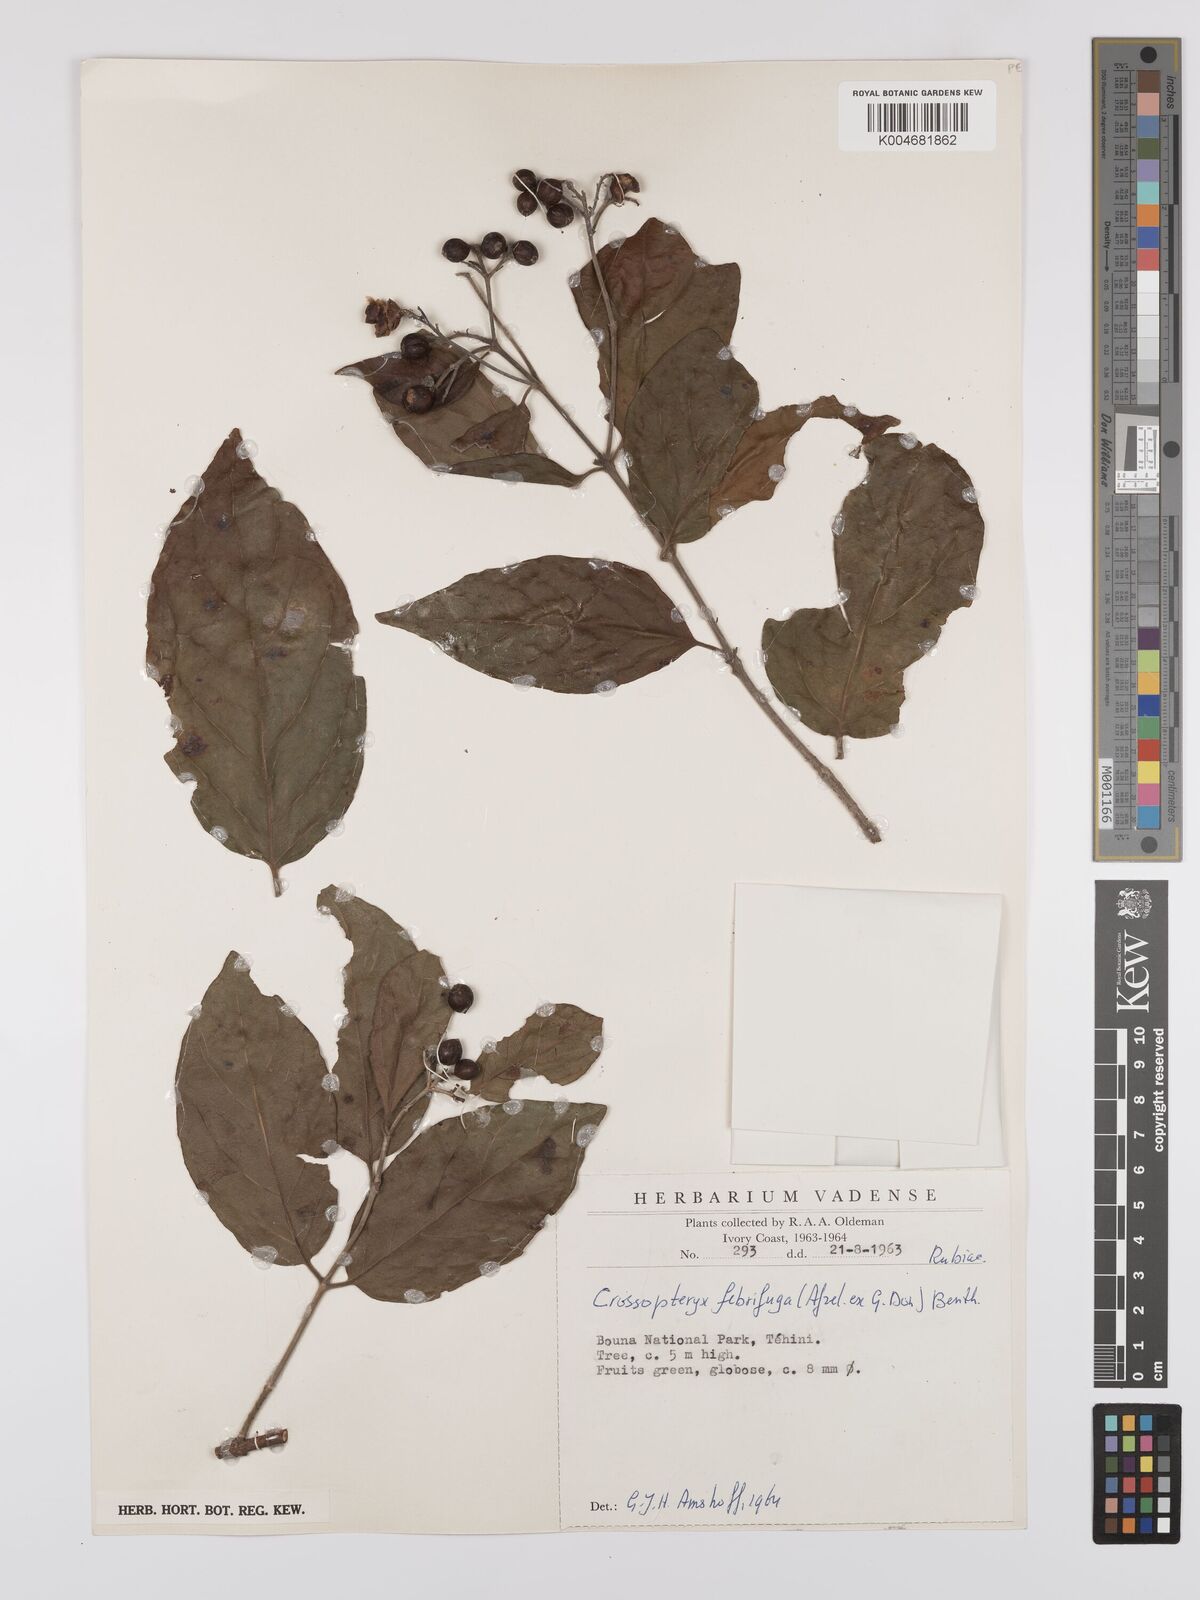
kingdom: Plantae
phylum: Tracheophyta
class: Magnoliopsida
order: Gentianales
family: Rubiaceae
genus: Crossopteryx
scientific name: Crossopteryx febrifuga
